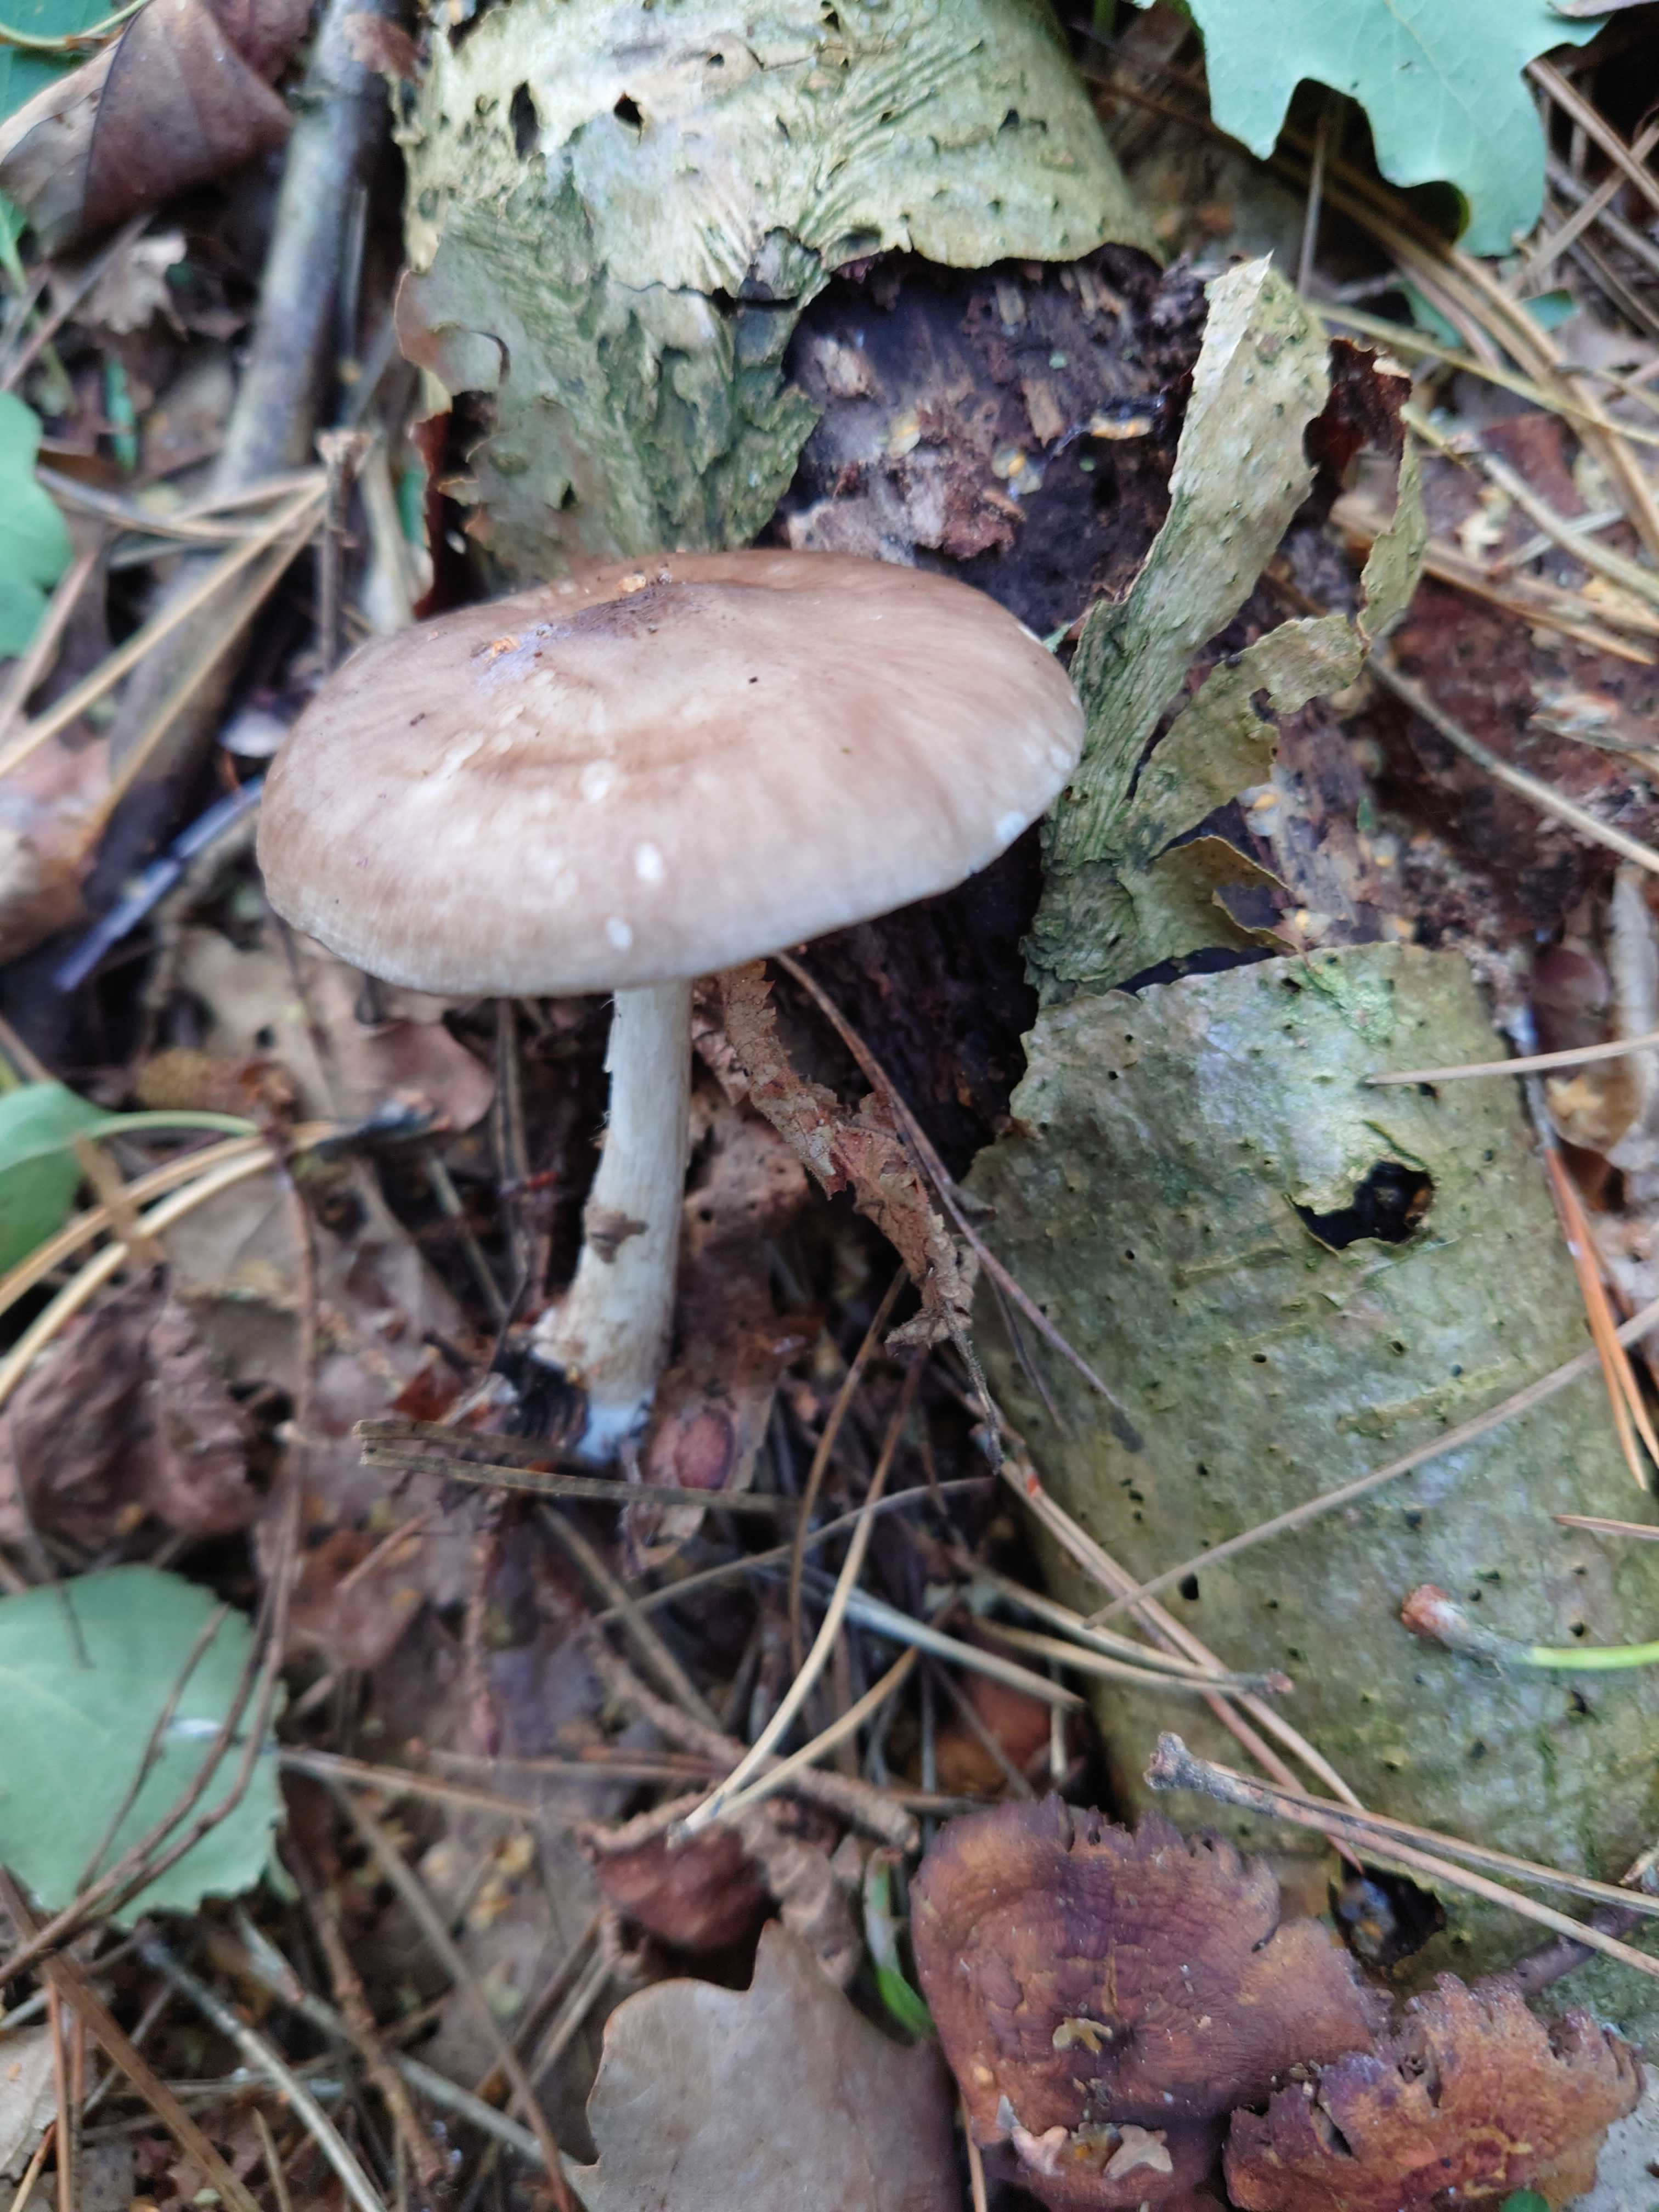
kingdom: Fungi
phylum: Basidiomycota
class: Agaricomycetes
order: Agaricales
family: Pluteaceae
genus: Pluteus
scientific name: Pluteus cervinus
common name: sodfarvet skærmhat
